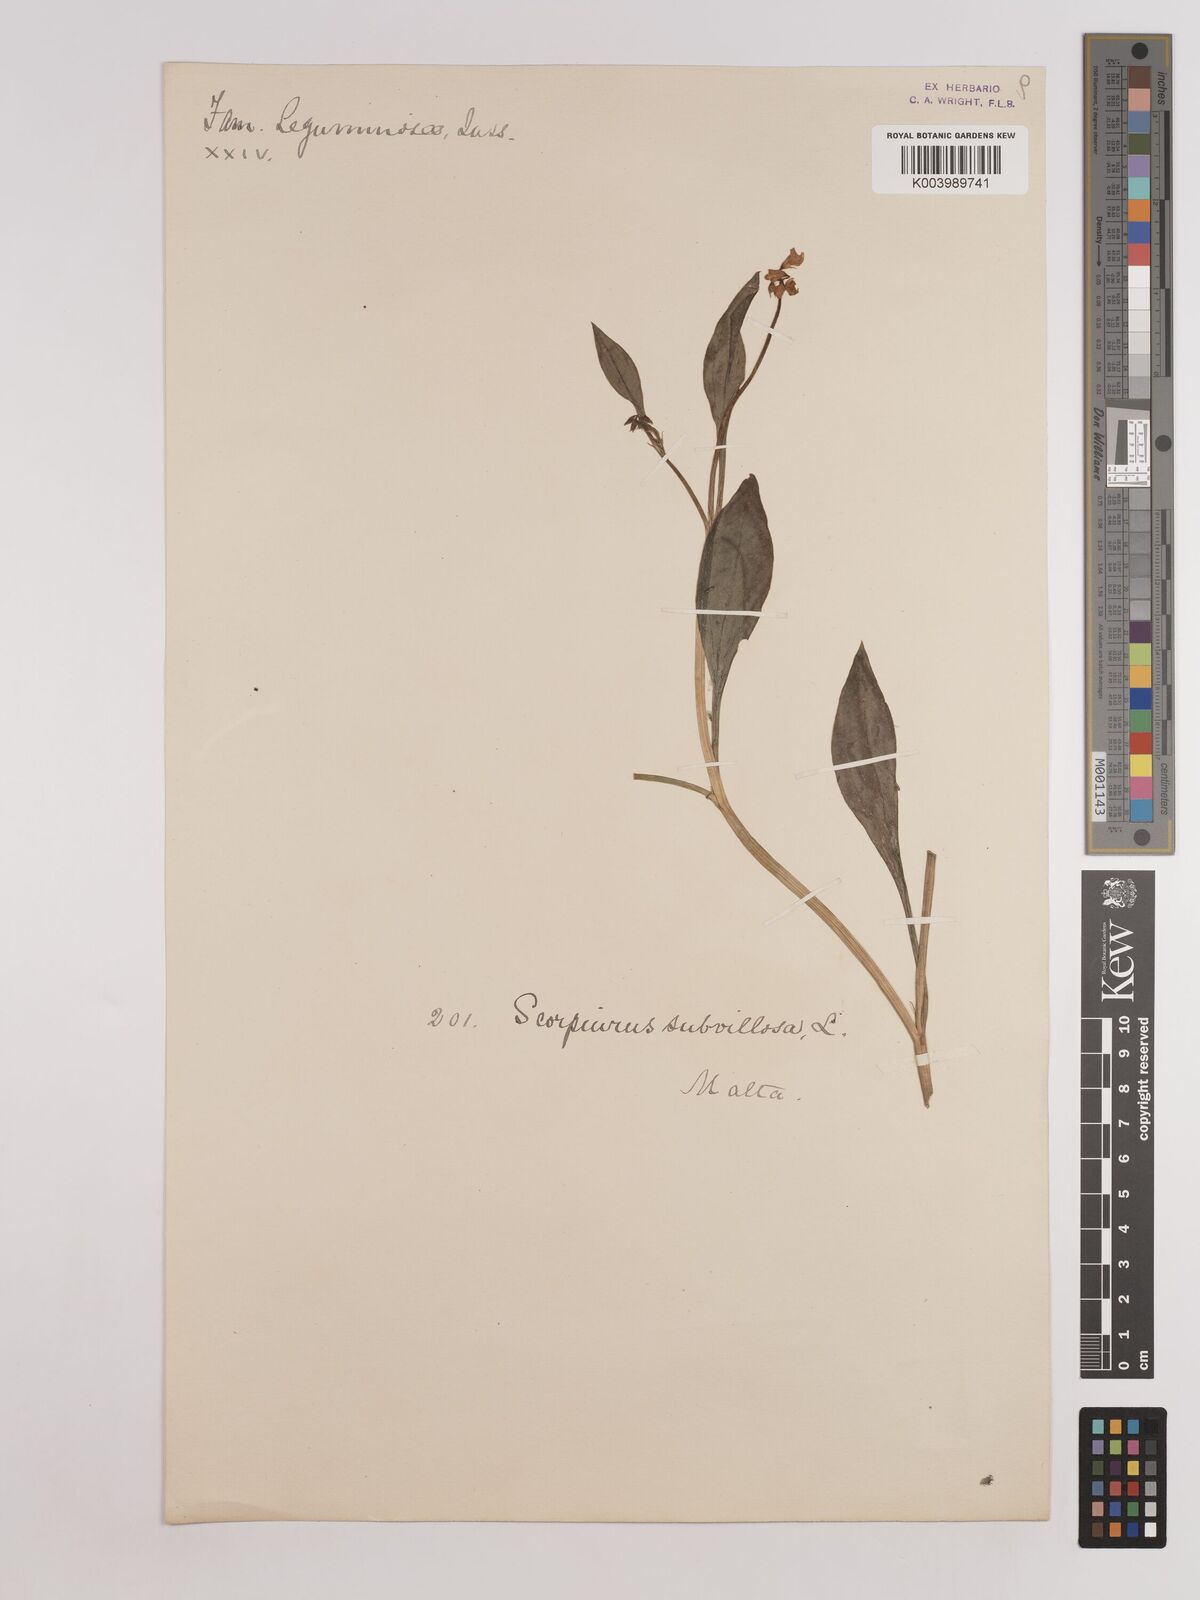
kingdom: Plantae
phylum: Tracheophyta
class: Magnoliopsida
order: Fabales
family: Fabaceae
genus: Scorpiurus
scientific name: Scorpiurus muricatus
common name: Caterpillar-plant
